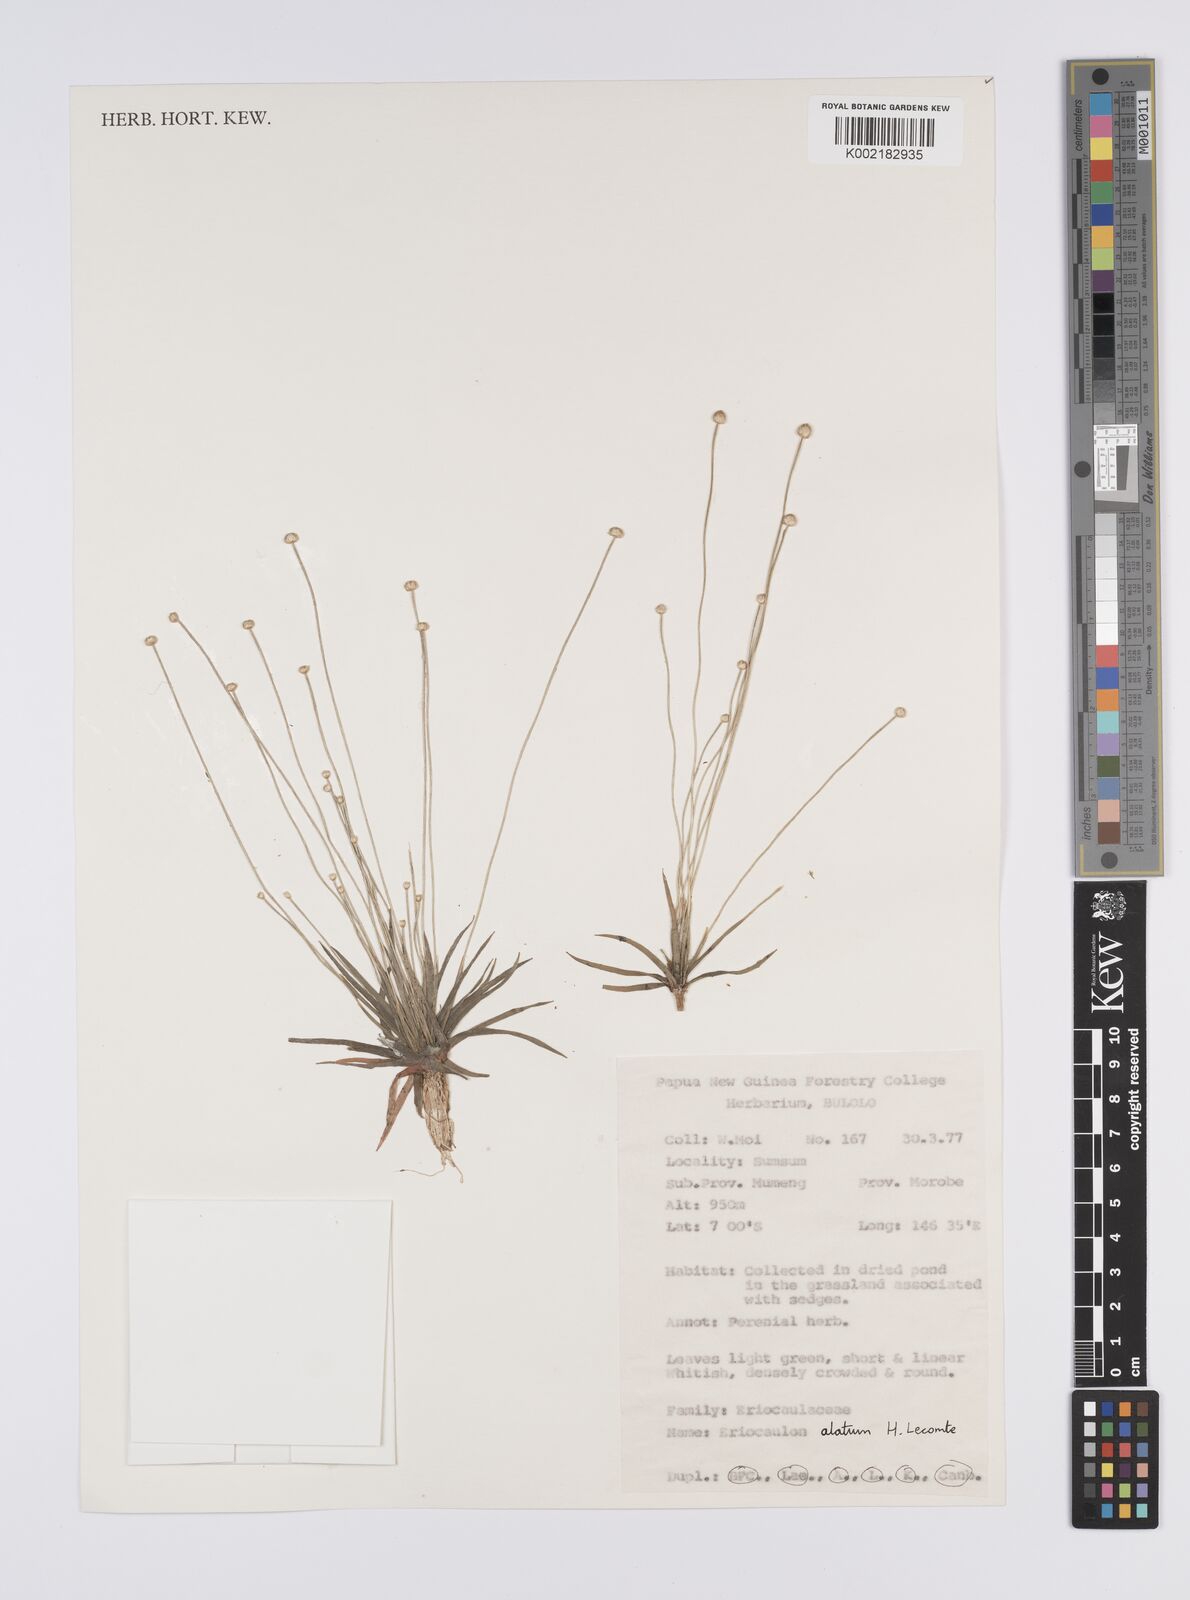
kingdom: Plantae
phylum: Tracheophyta
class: Liliopsida
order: Poales
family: Eriocaulaceae
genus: Eriocaulon
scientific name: Eriocaulon zollingerianum
